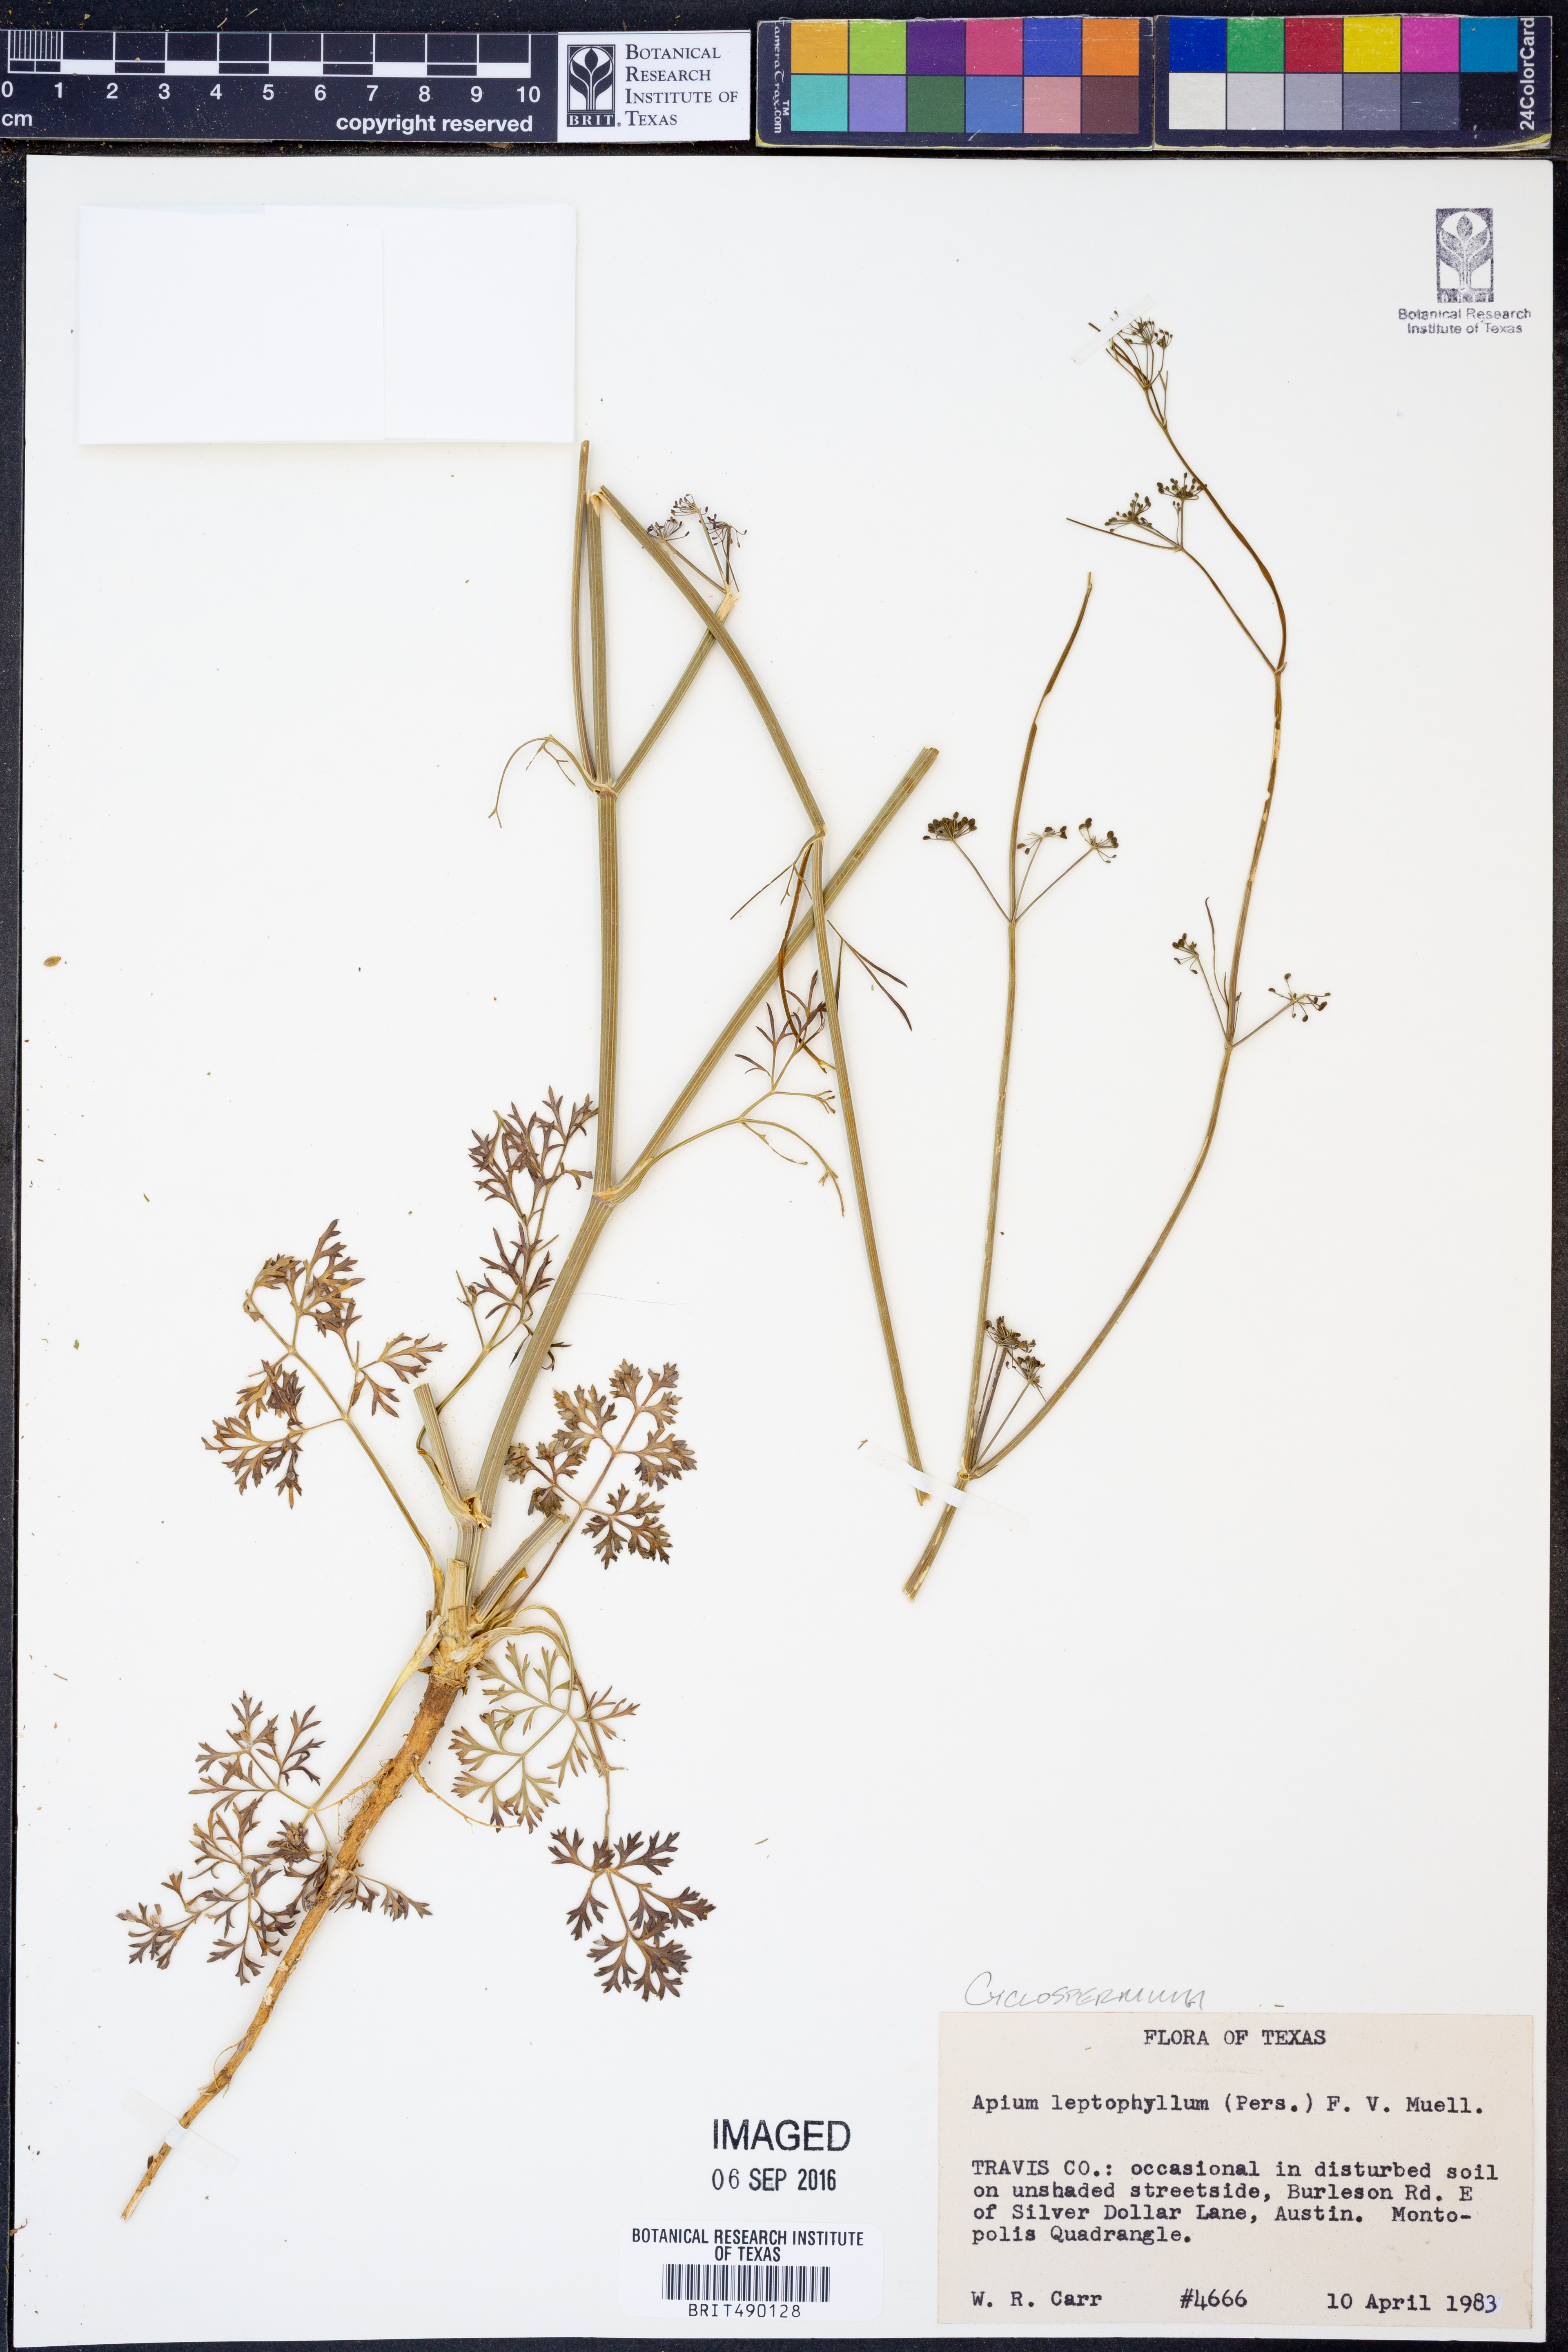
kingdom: Plantae
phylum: Tracheophyta
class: Magnoliopsida
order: Apiales
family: Apiaceae
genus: Cyclospermum
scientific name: Cyclospermum leptophyllum
